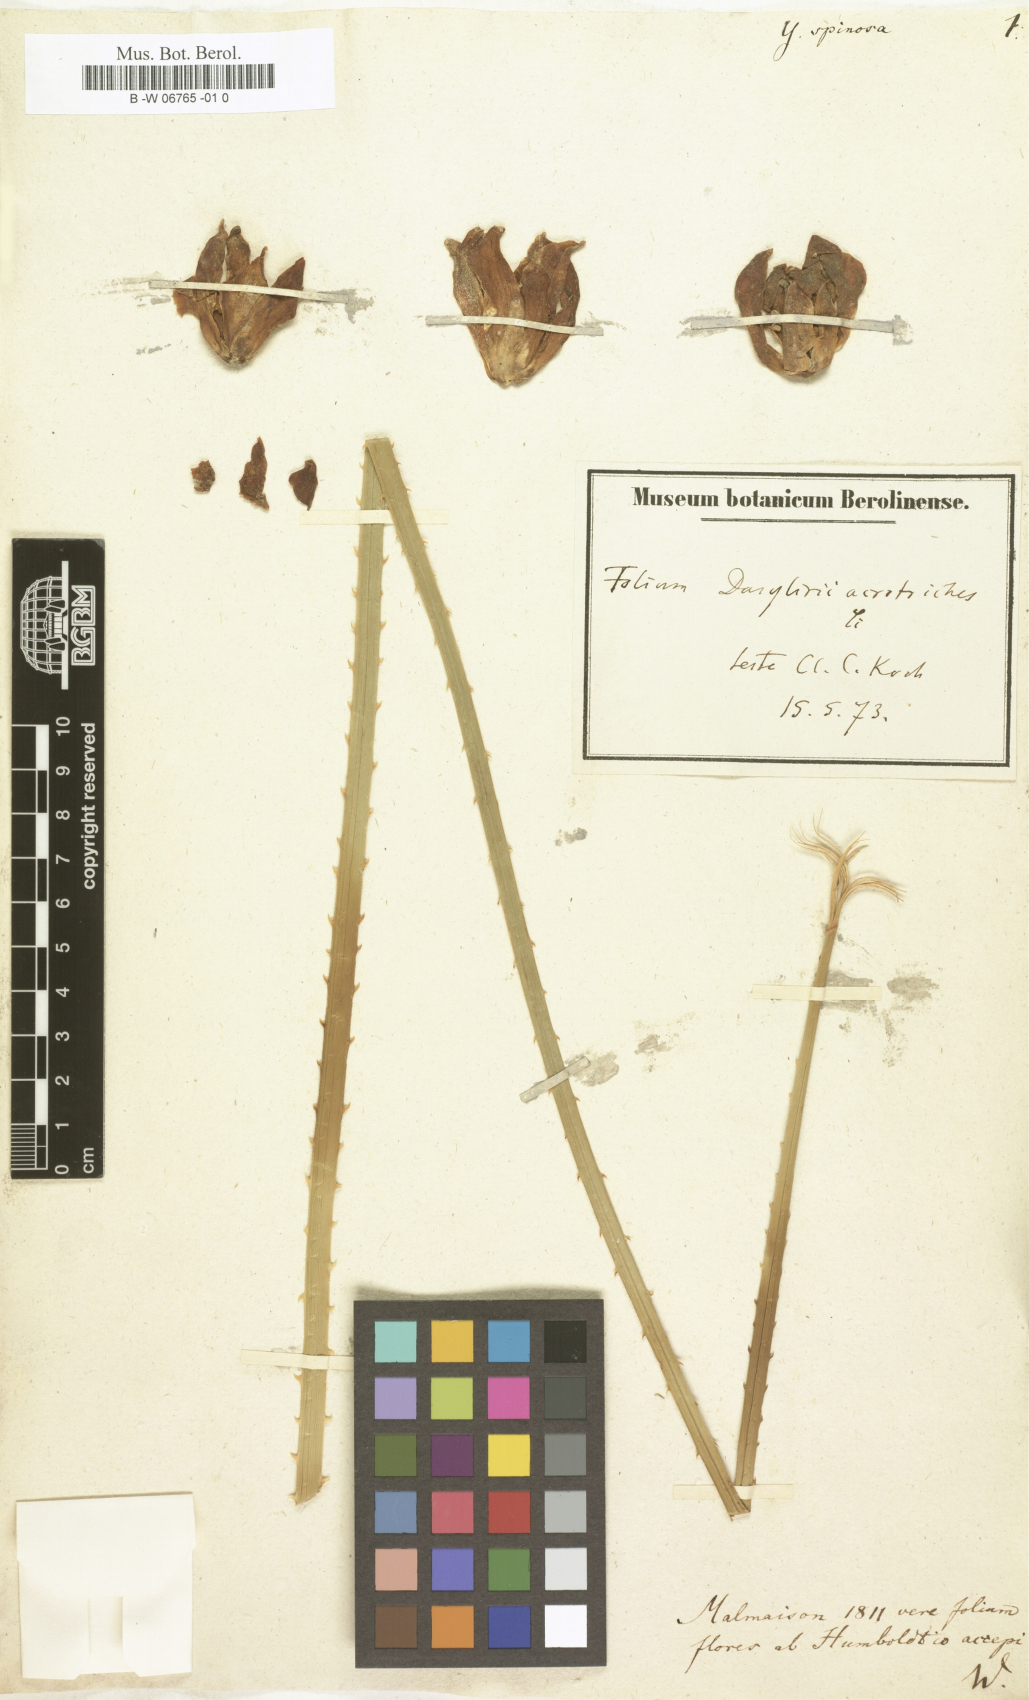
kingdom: Plantae
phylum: Tracheophyta
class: Liliopsida
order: Asparagales
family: Asparagaceae
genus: Yucca
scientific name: Yucca treculiana
